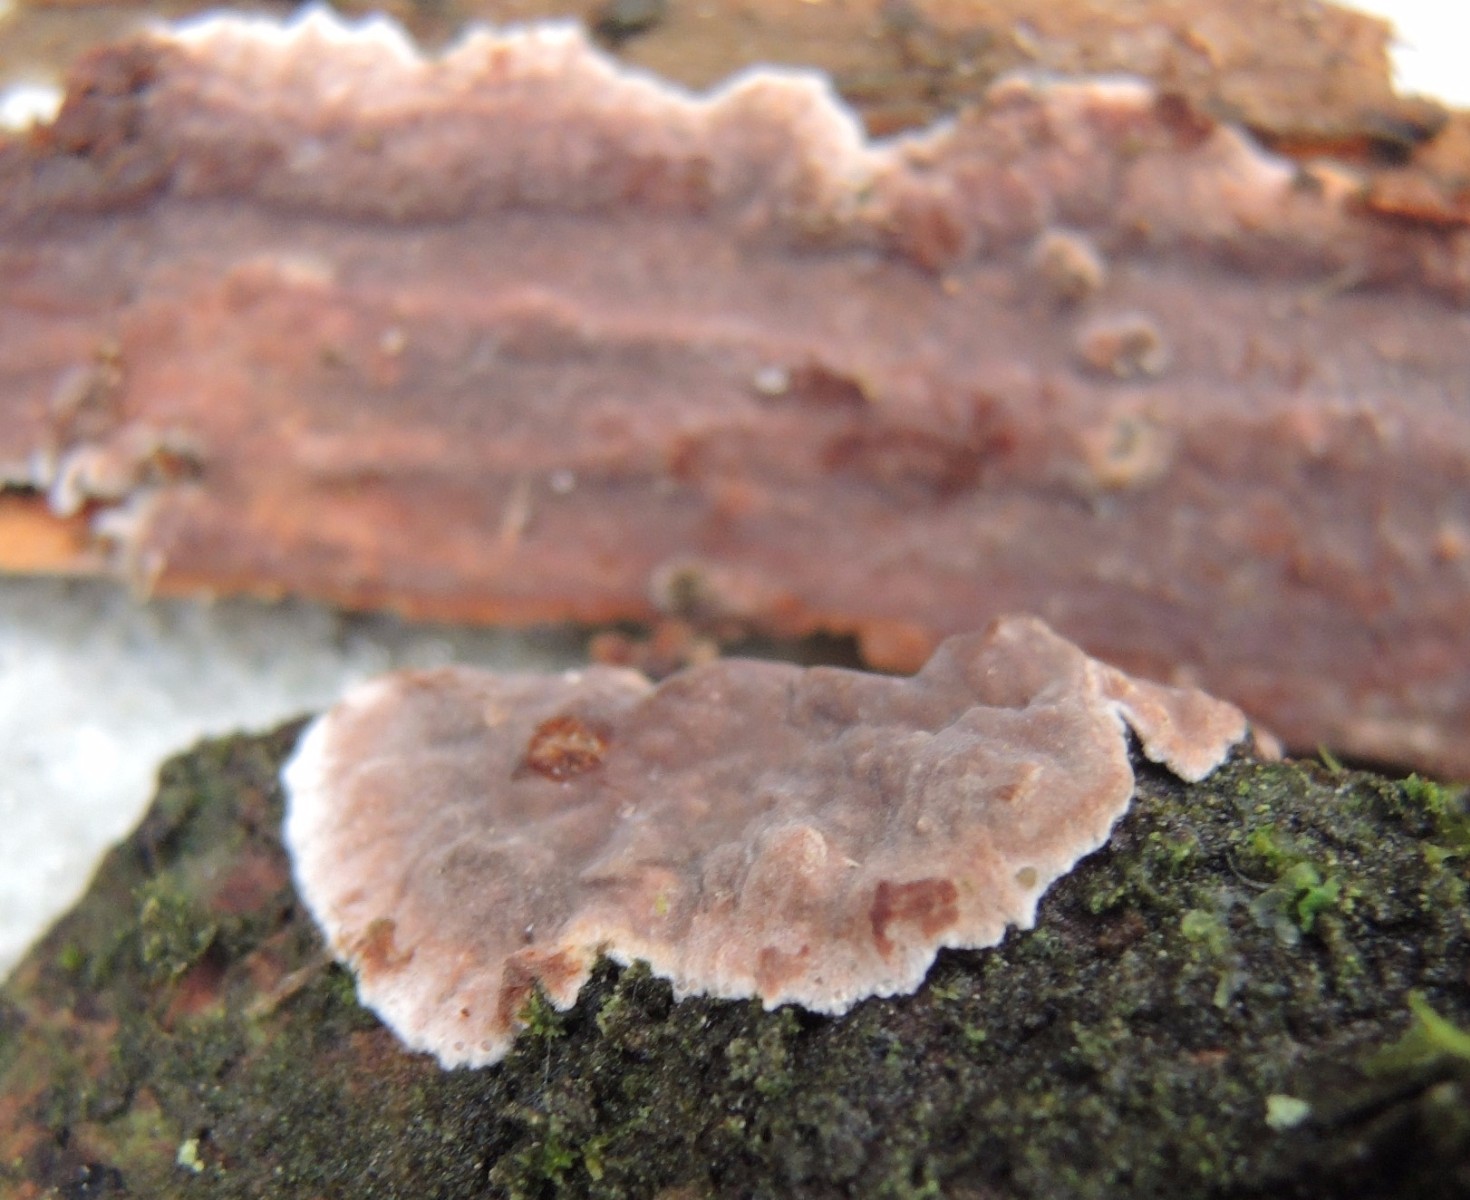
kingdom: Fungi
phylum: Basidiomycota
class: Agaricomycetes
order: Russulales
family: Echinodontiaceae
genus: Amylostereum
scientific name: Amylostereum chailletii
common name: gran-lædersvamp
